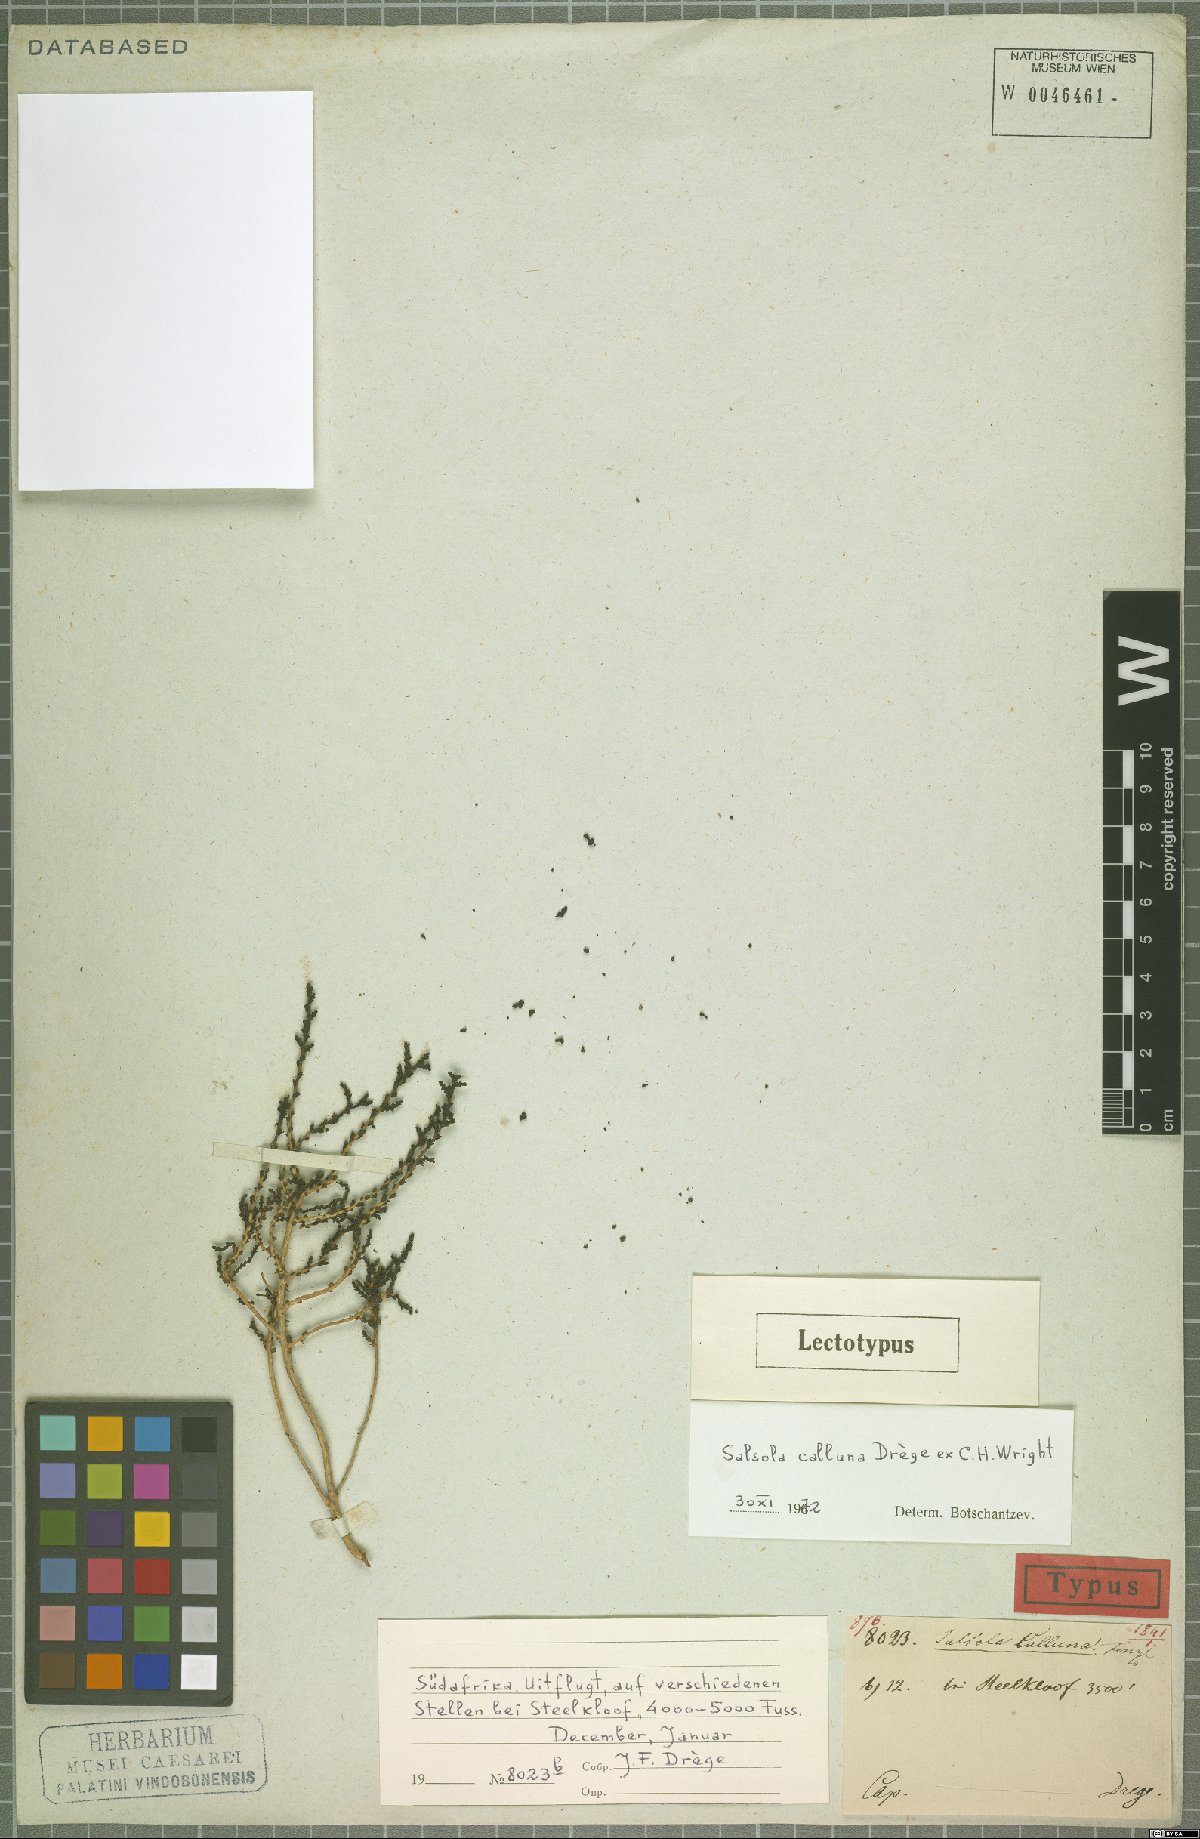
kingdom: Plantae
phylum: Tracheophyta
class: Magnoliopsida
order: Caryophyllales
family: Amaranthaceae
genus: Caroxylon
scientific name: Caroxylon calluna
